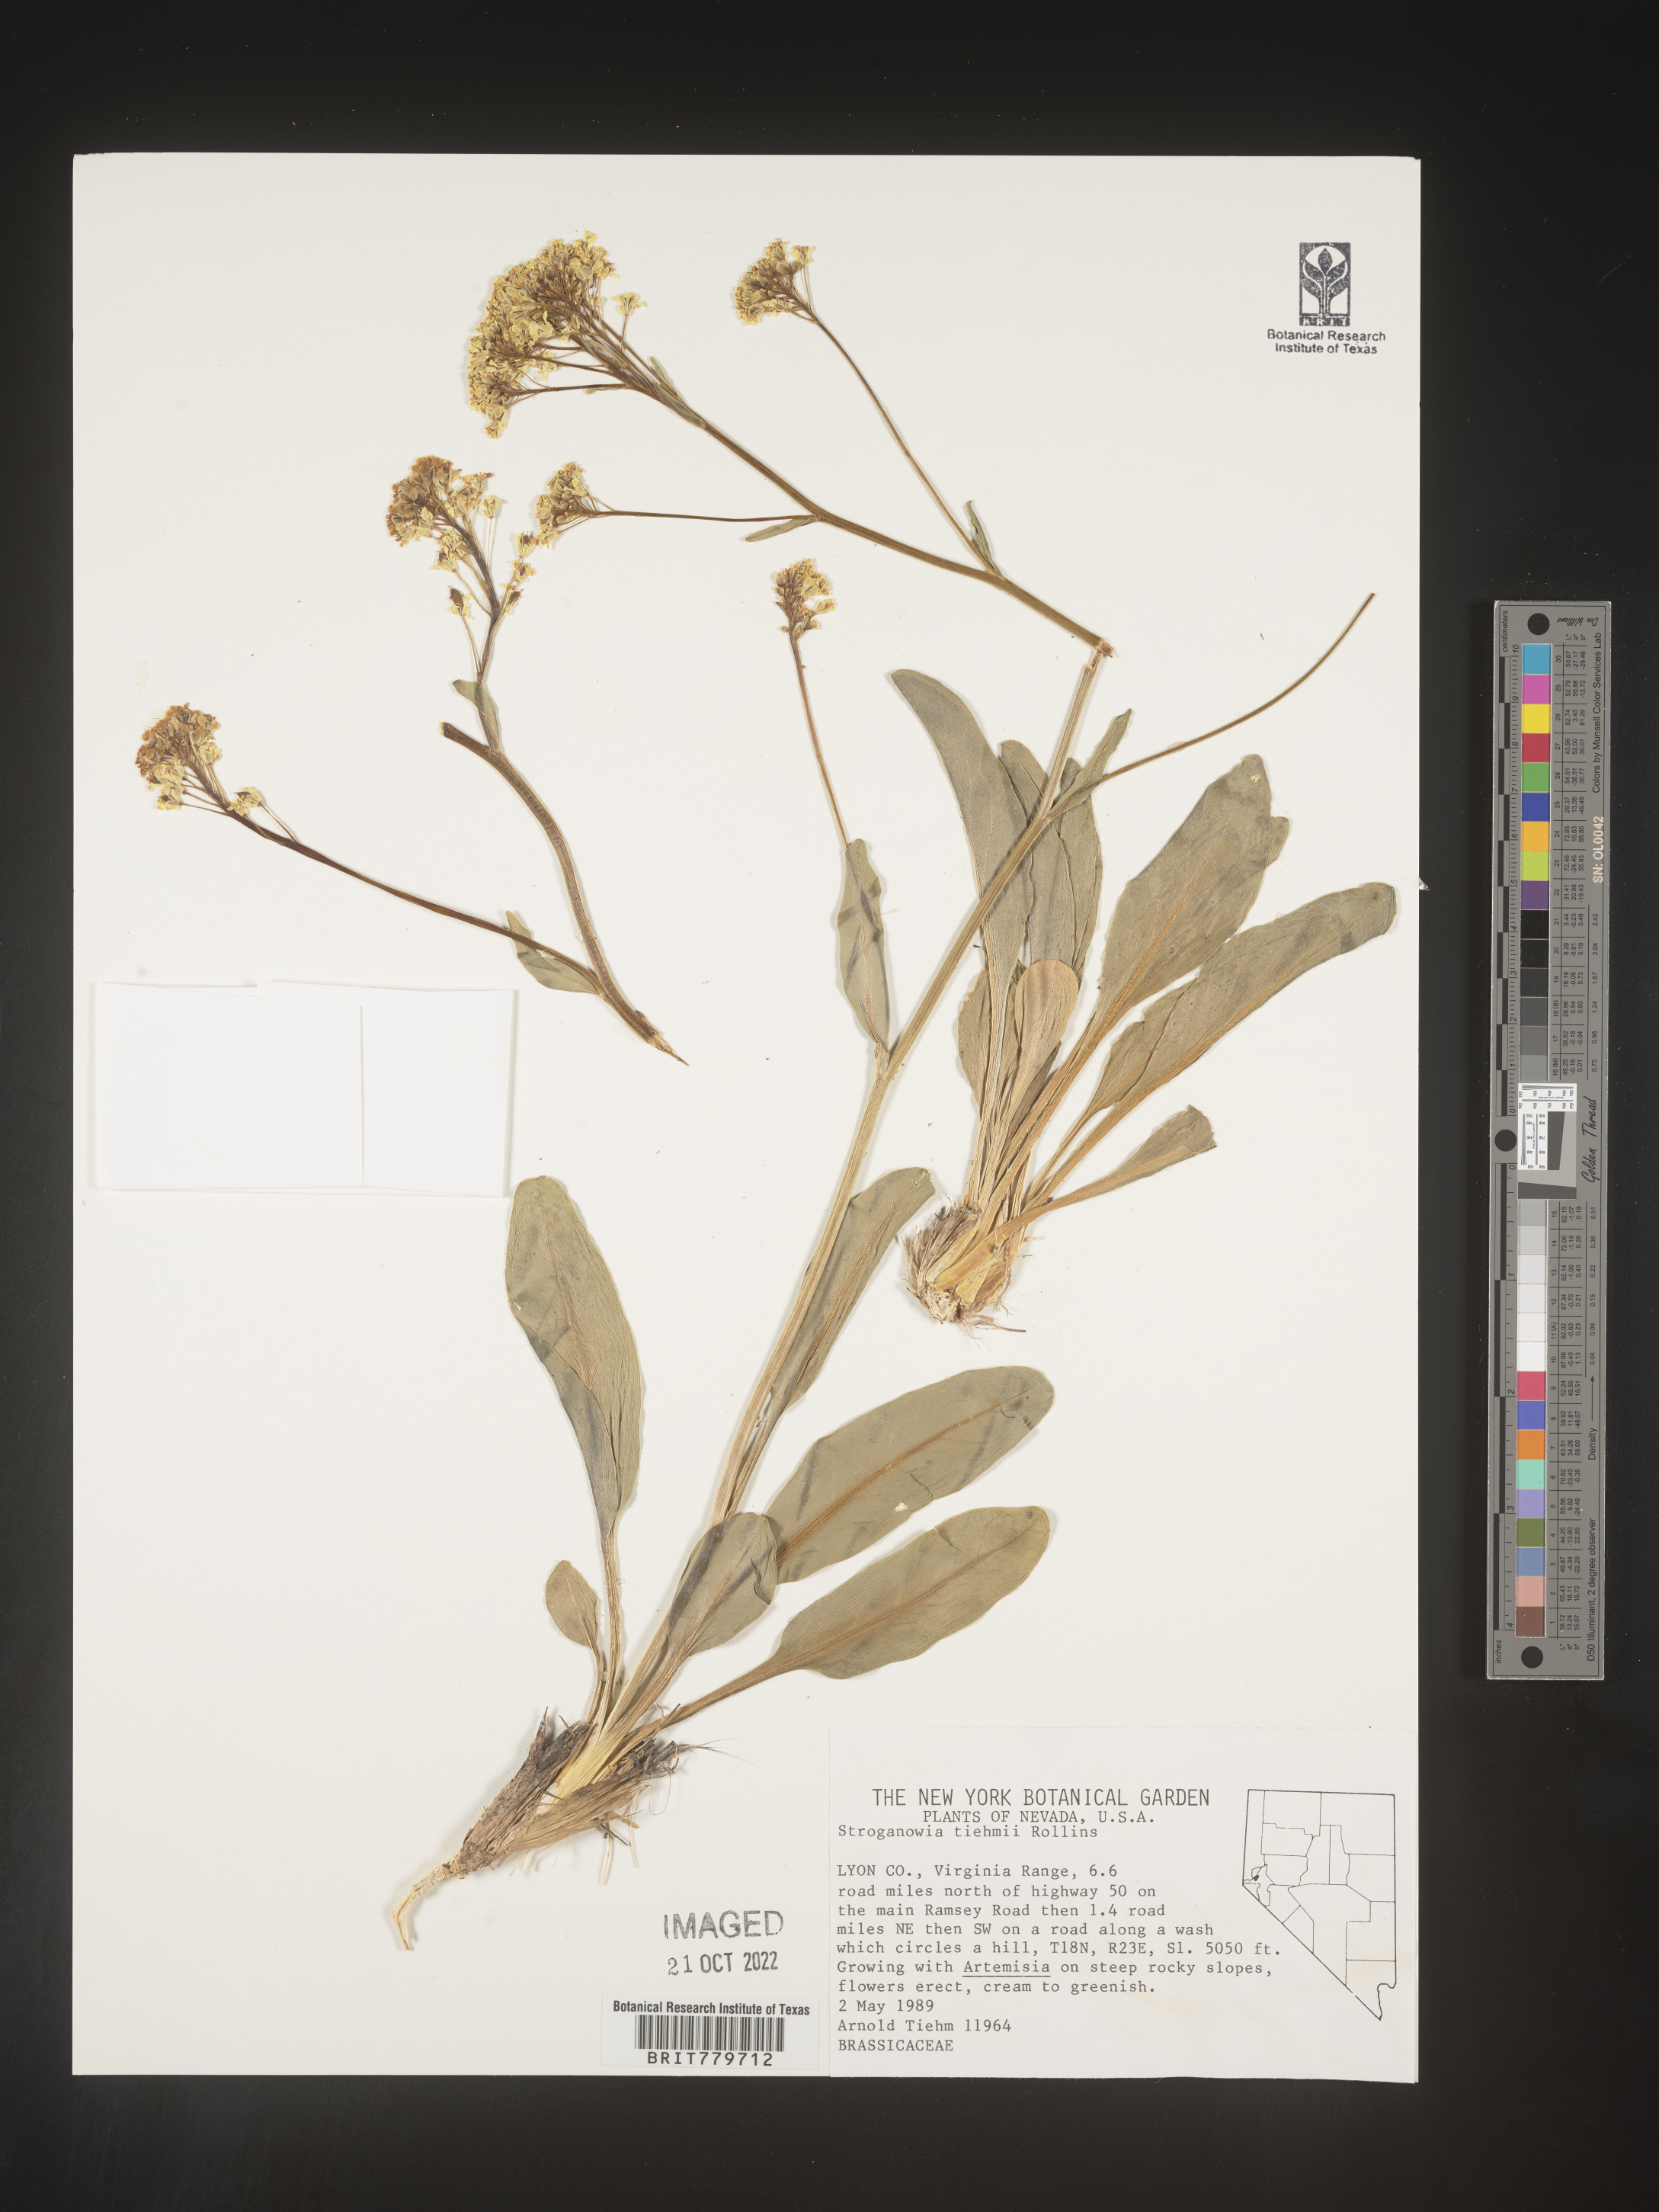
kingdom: Plantae
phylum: Tracheophyta
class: Magnoliopsida
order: Brassicales
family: Brassicaceae
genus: Lepidium
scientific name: Lepidium
